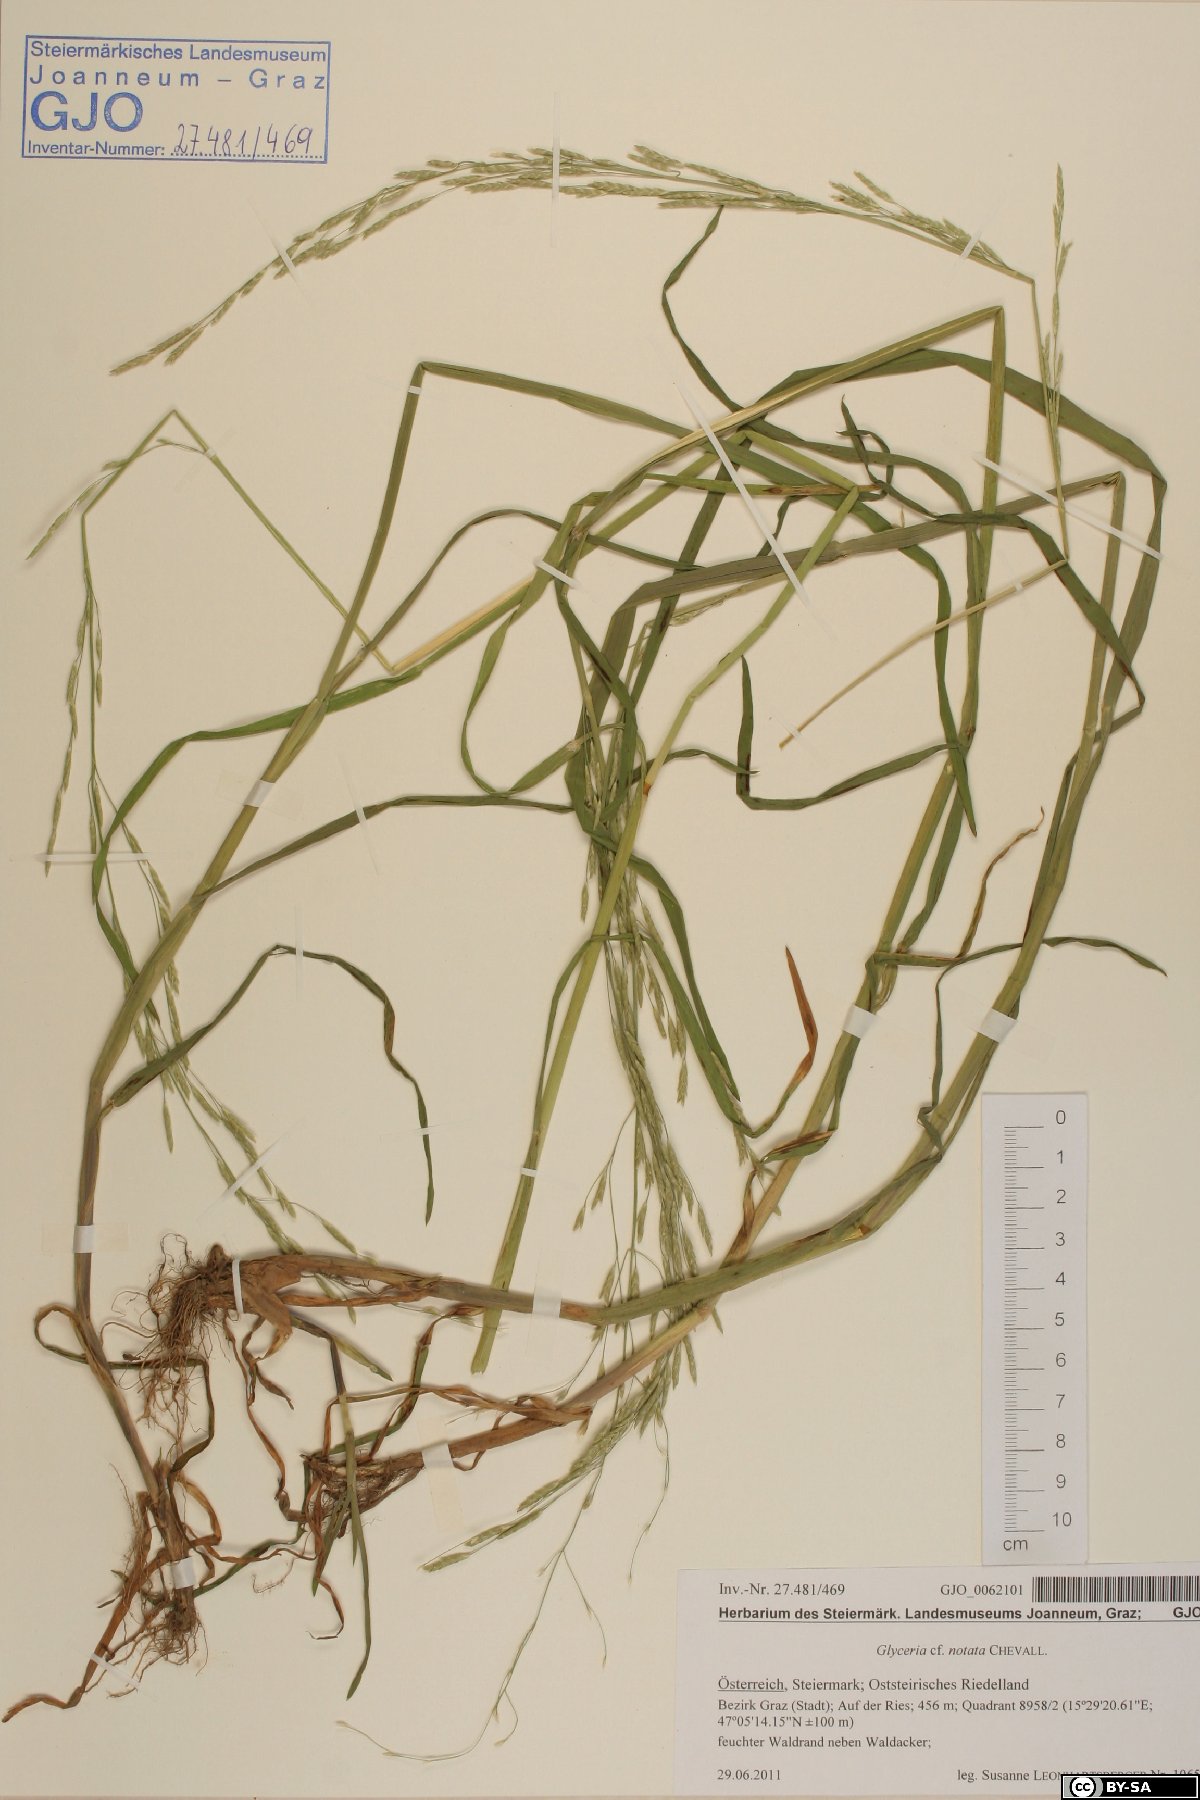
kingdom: Plantae
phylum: Tracheophyta
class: Liliopsida
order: Poales
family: Poaceae
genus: Glyceria
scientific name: Glyceria notata
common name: Plicate sweet-grass
